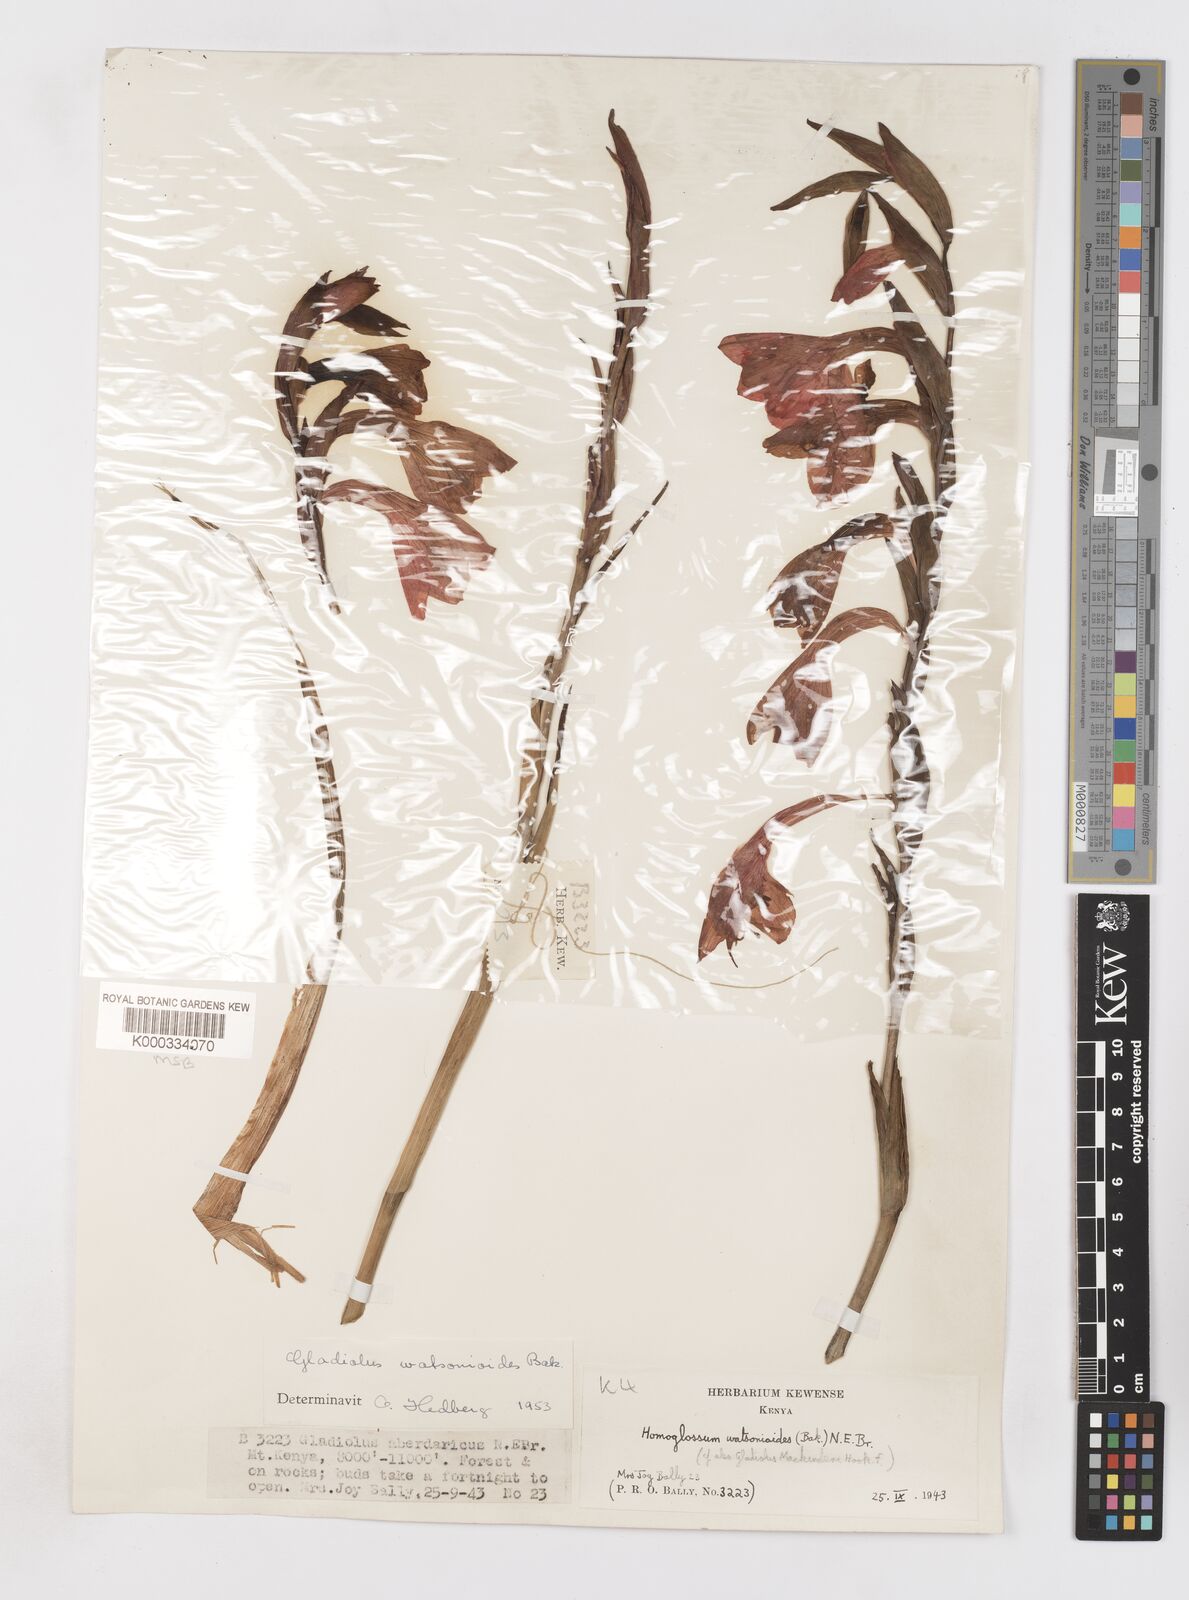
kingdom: Plantae
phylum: Tracheophyta
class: Liliopsida
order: Asparagales
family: Iridaceae
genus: Gladiolus
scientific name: Gladiolus watsonioides
